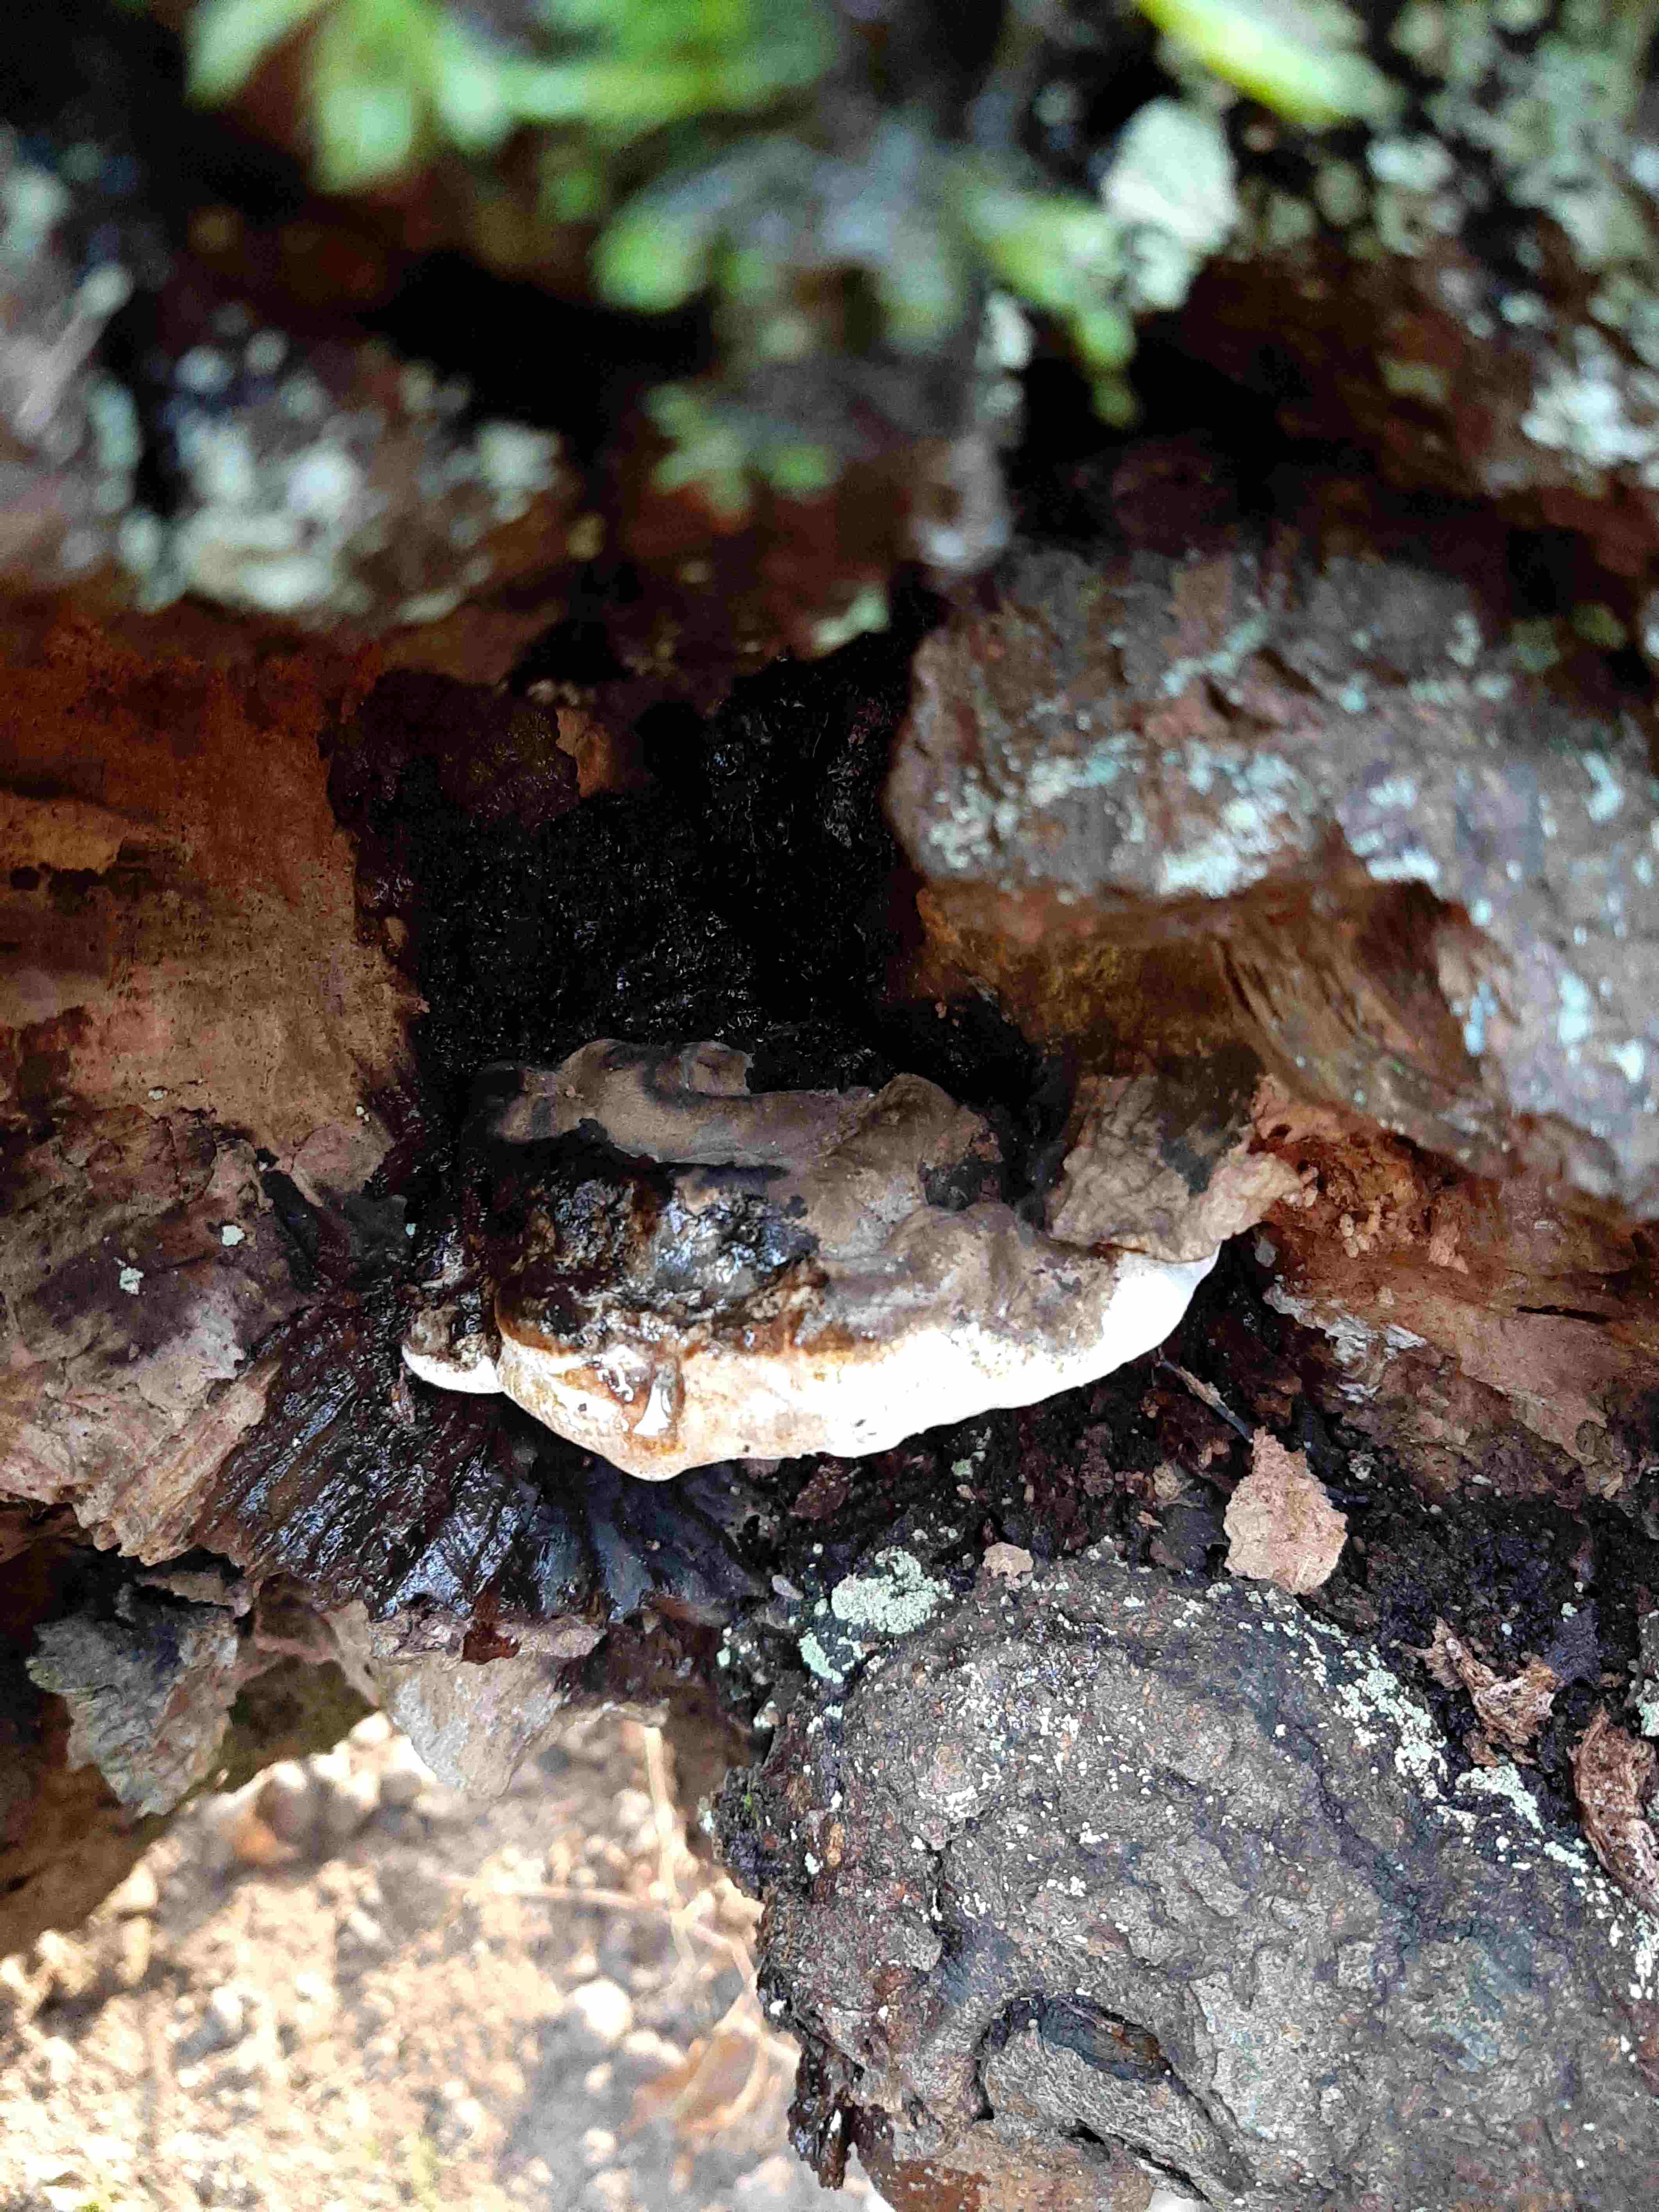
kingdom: Fungi
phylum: Basidiomycota
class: Agaricomycetes
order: Polyporales
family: Polyporaceae
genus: Ganoderma
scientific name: Ganoderma applanatum
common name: flad lakporesvamp
